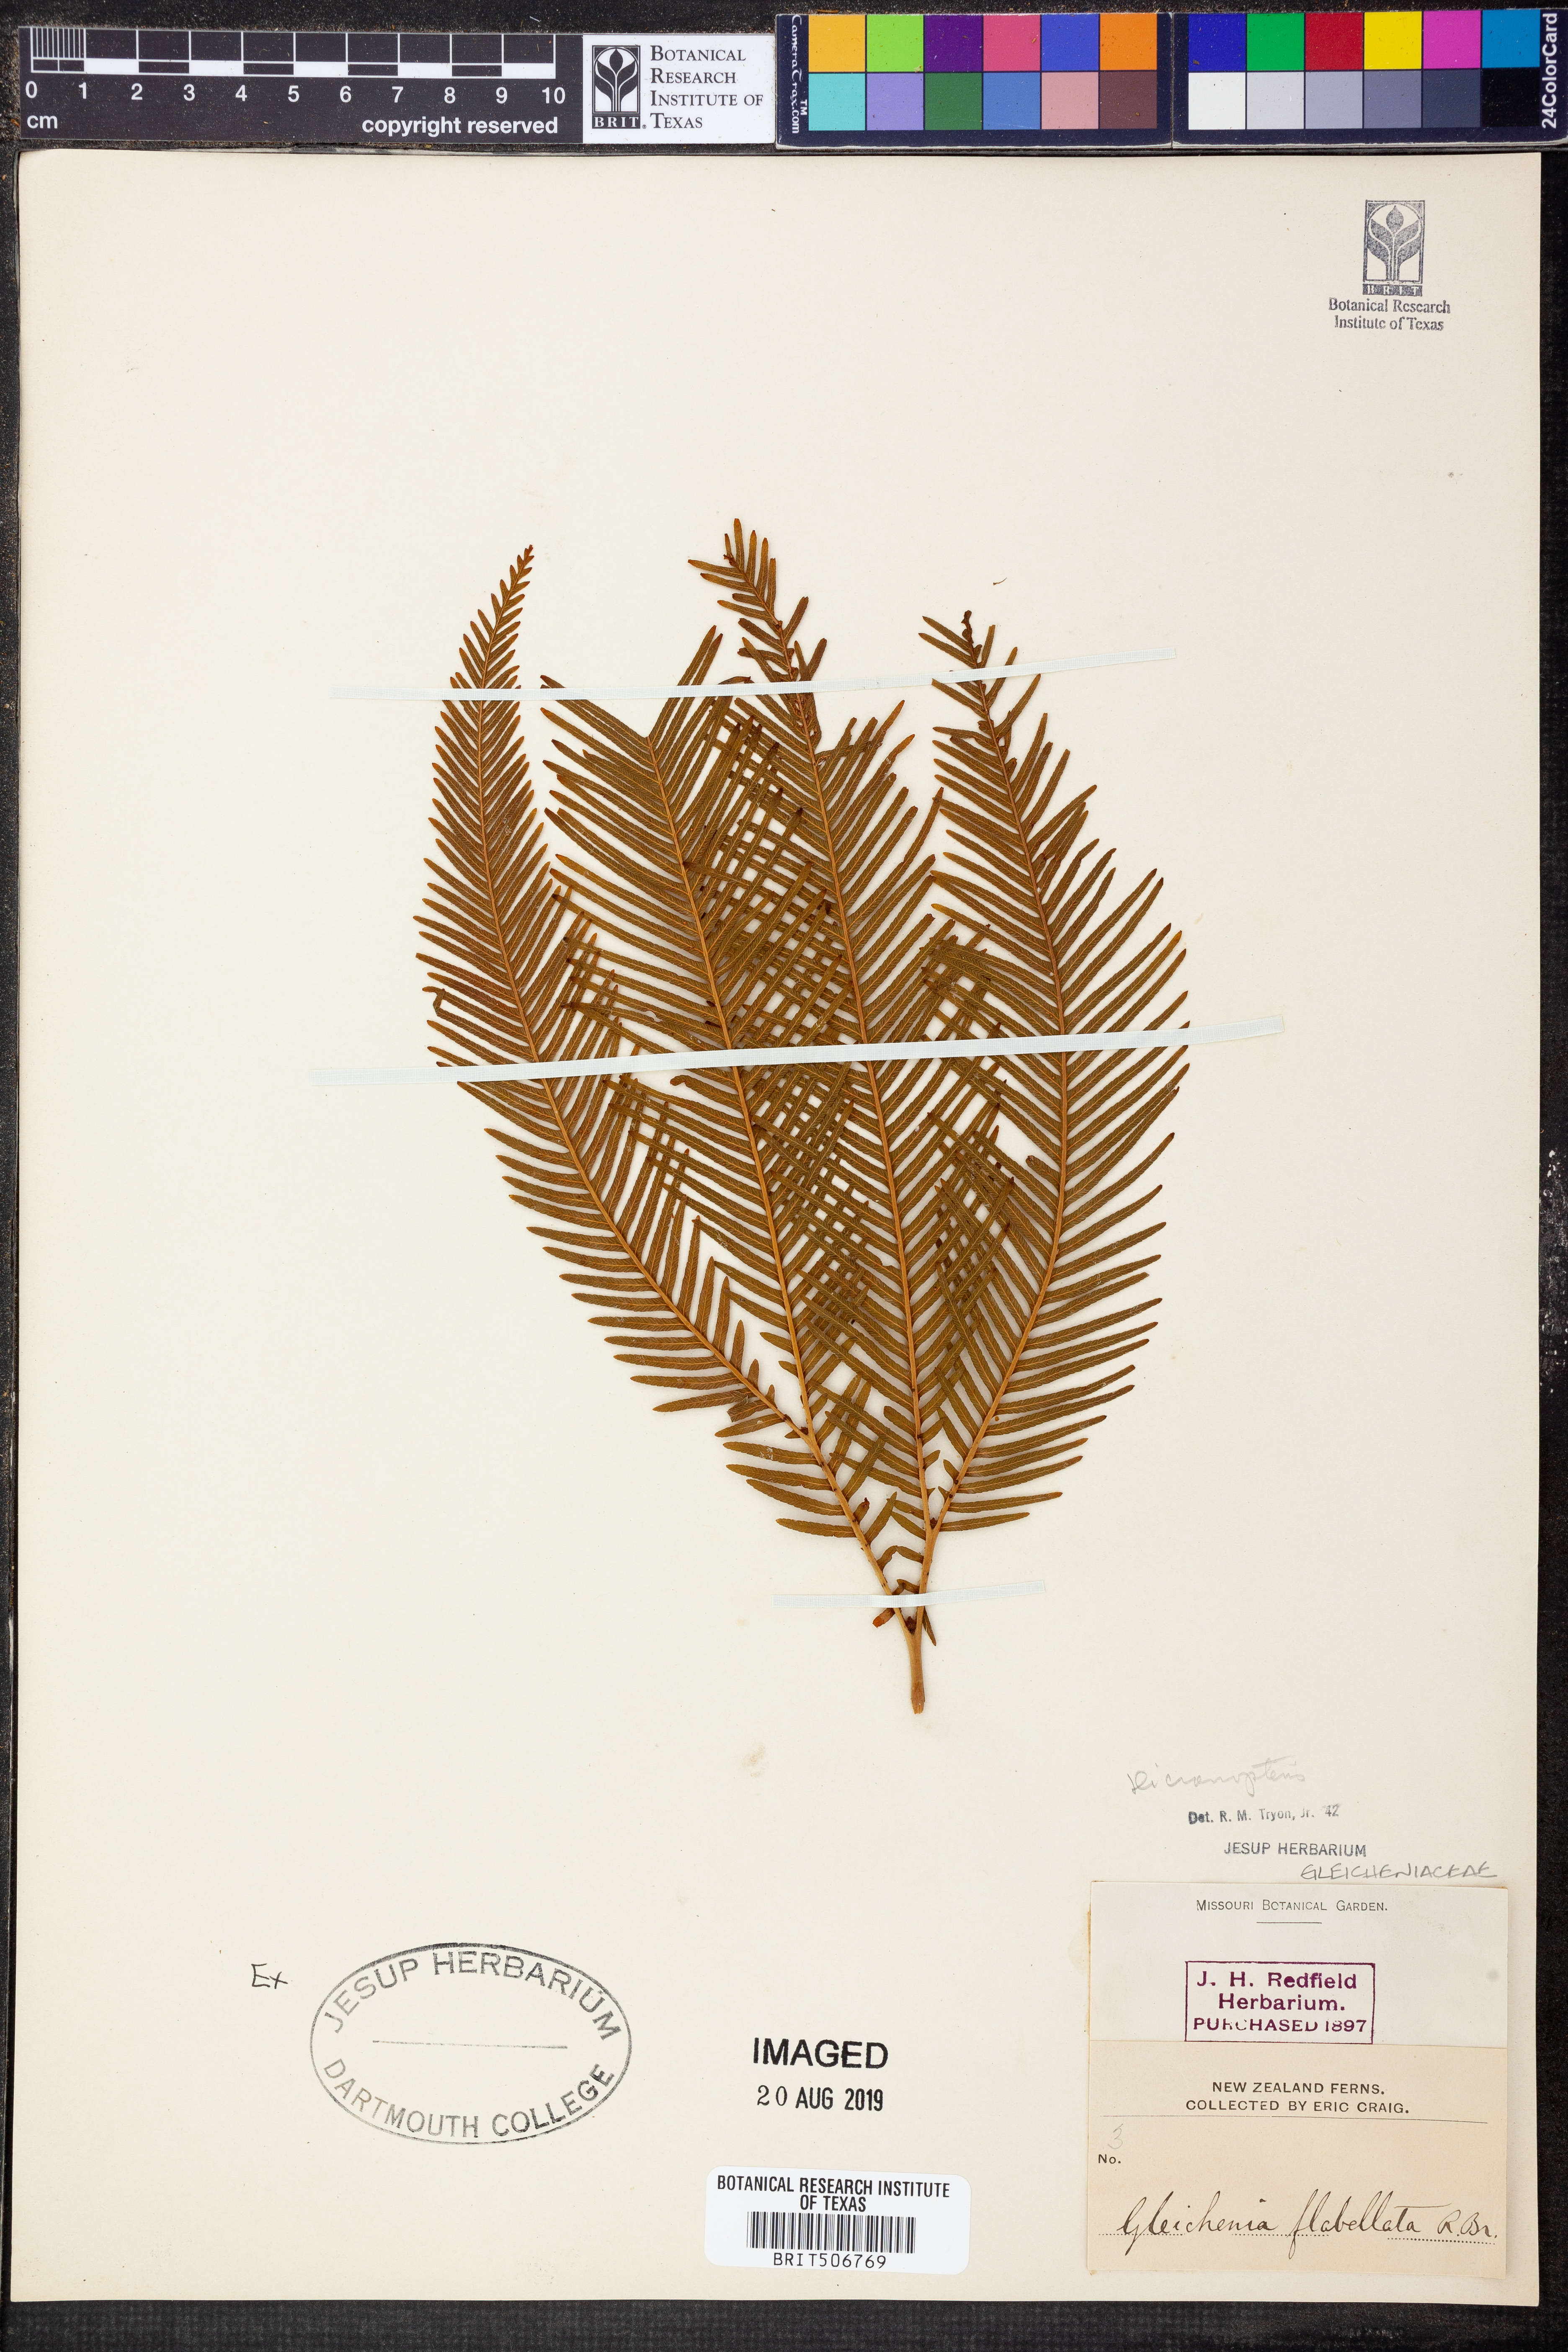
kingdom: Plantae
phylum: Tracheophyta
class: Polypodiopsida
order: Gleicheniales
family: Gleicheniaceae
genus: Dicranopteris
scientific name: Dicranopteris
